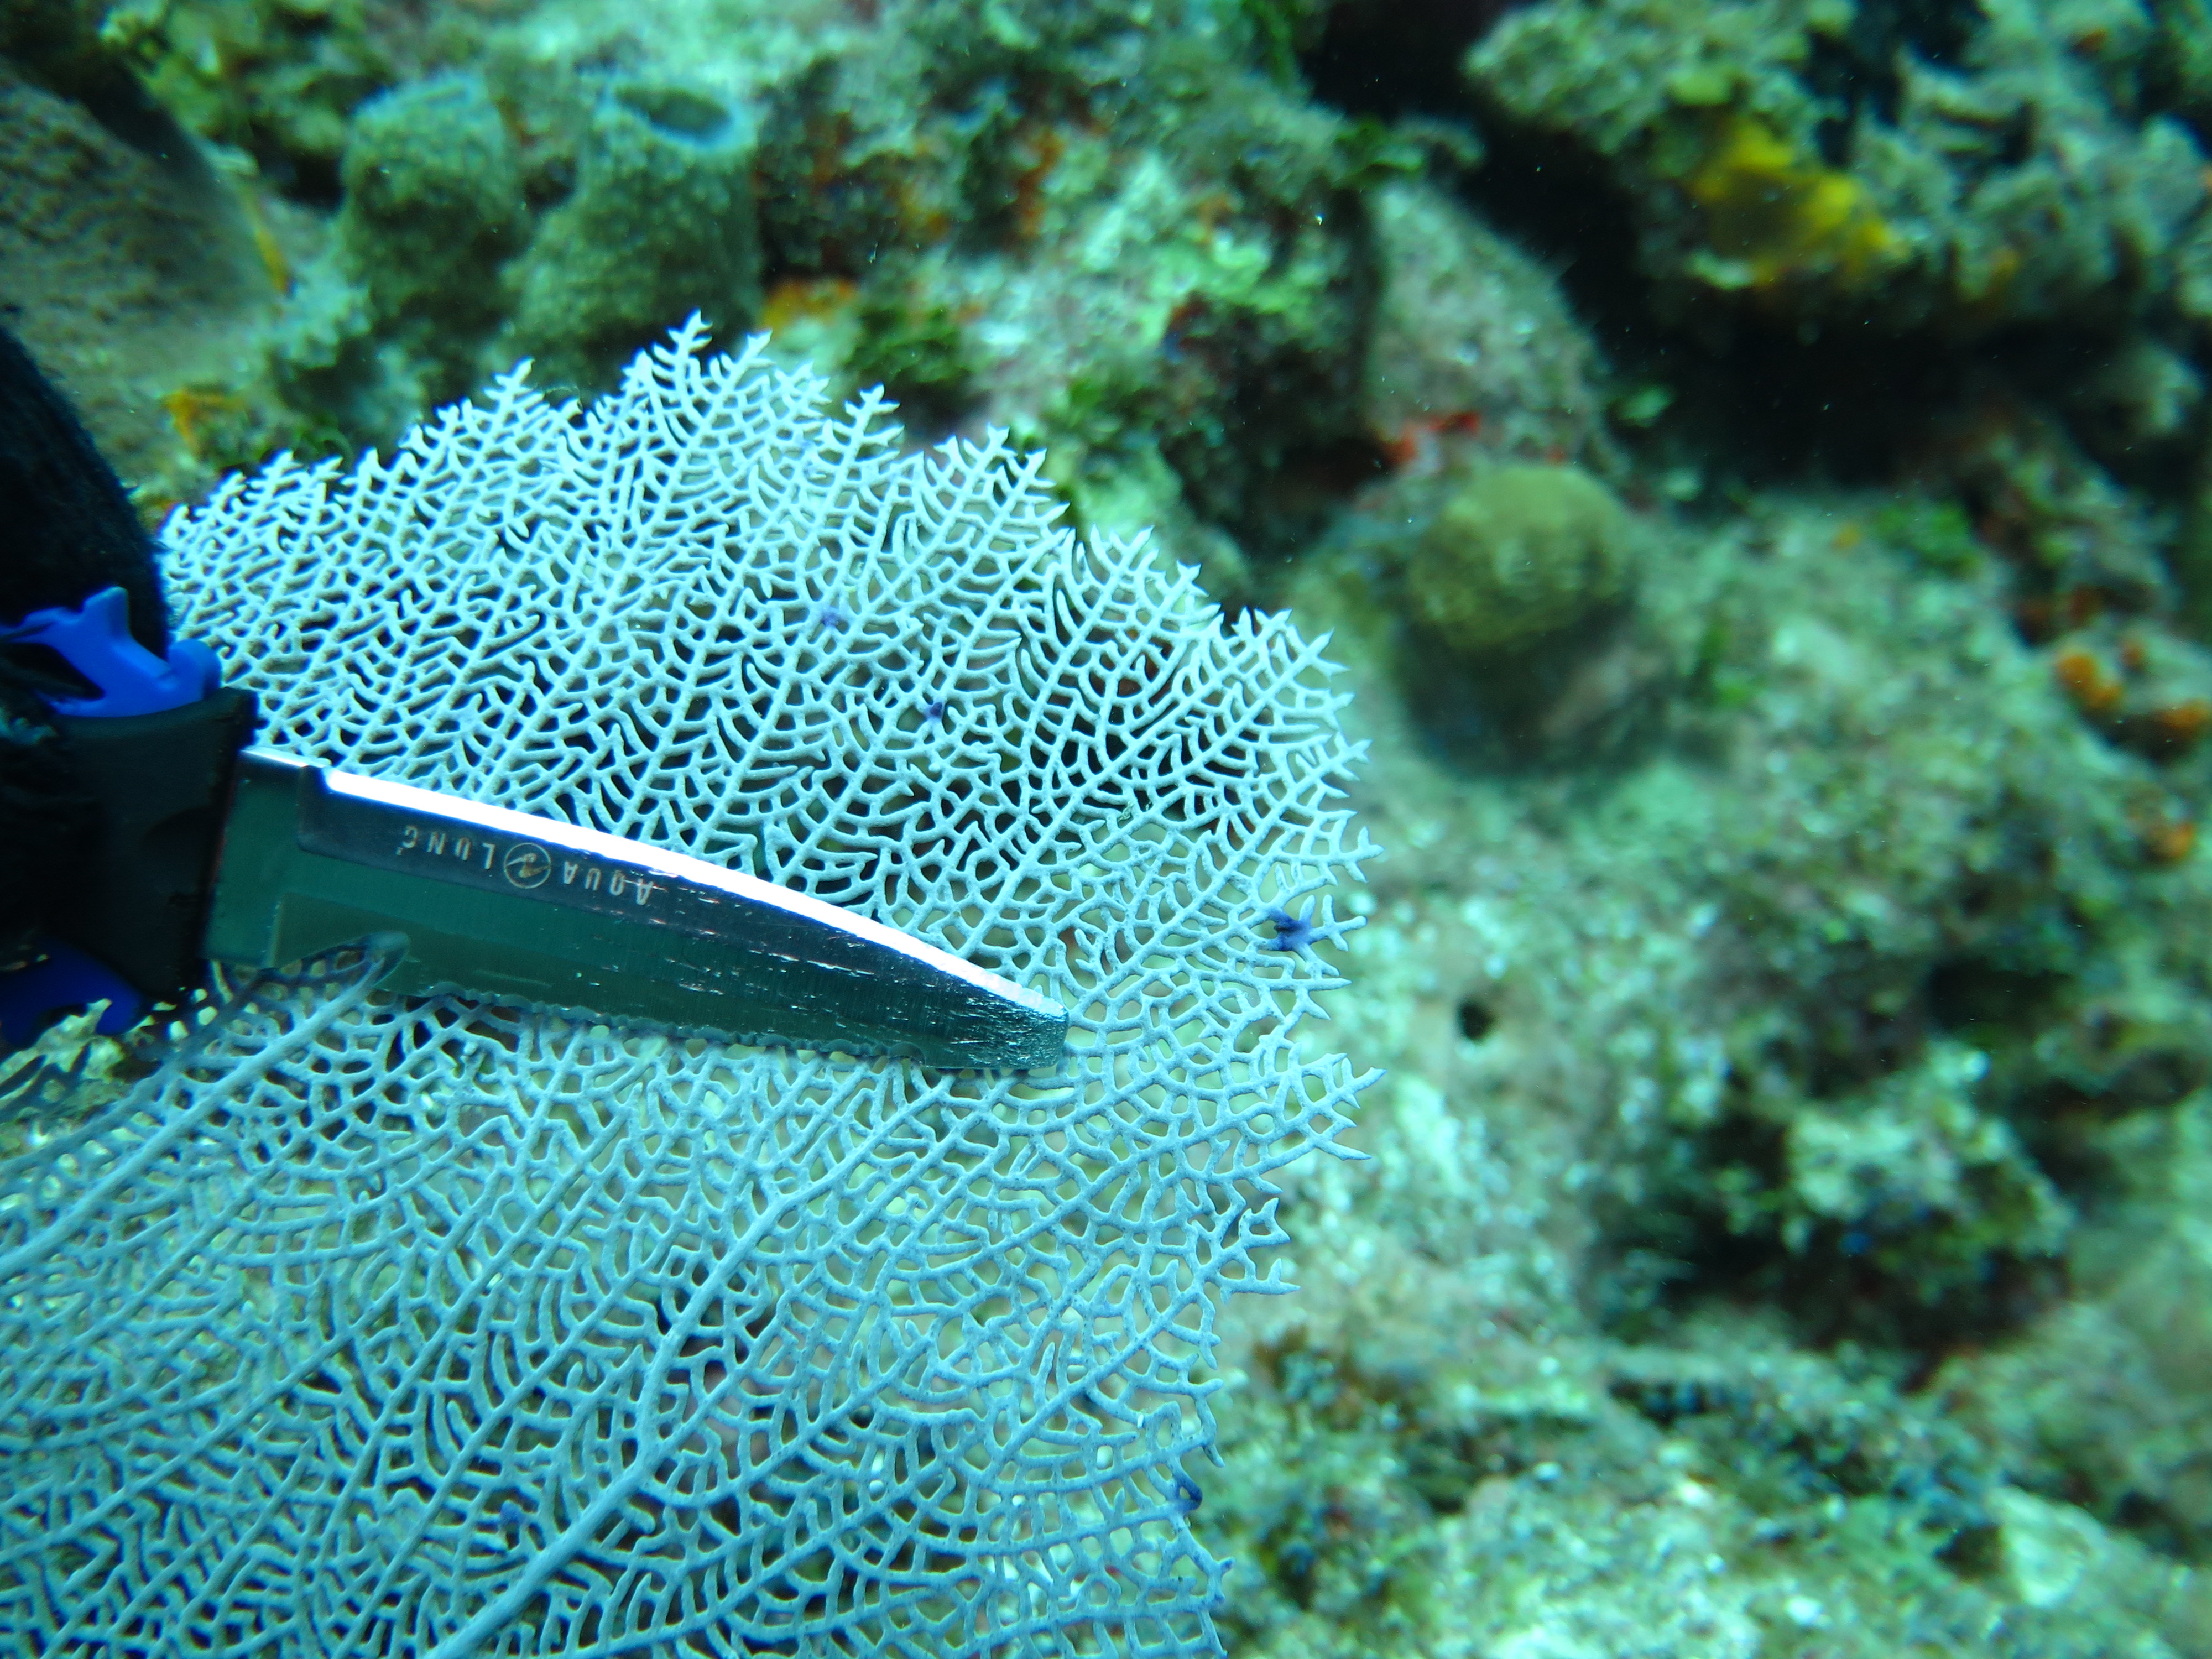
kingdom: Animalia
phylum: Cnidaria
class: Anthozoa
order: Malacalcyonacea
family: Gorgoniidae
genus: Gorgonia
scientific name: Gorgonia ventalina
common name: Common sea fan
